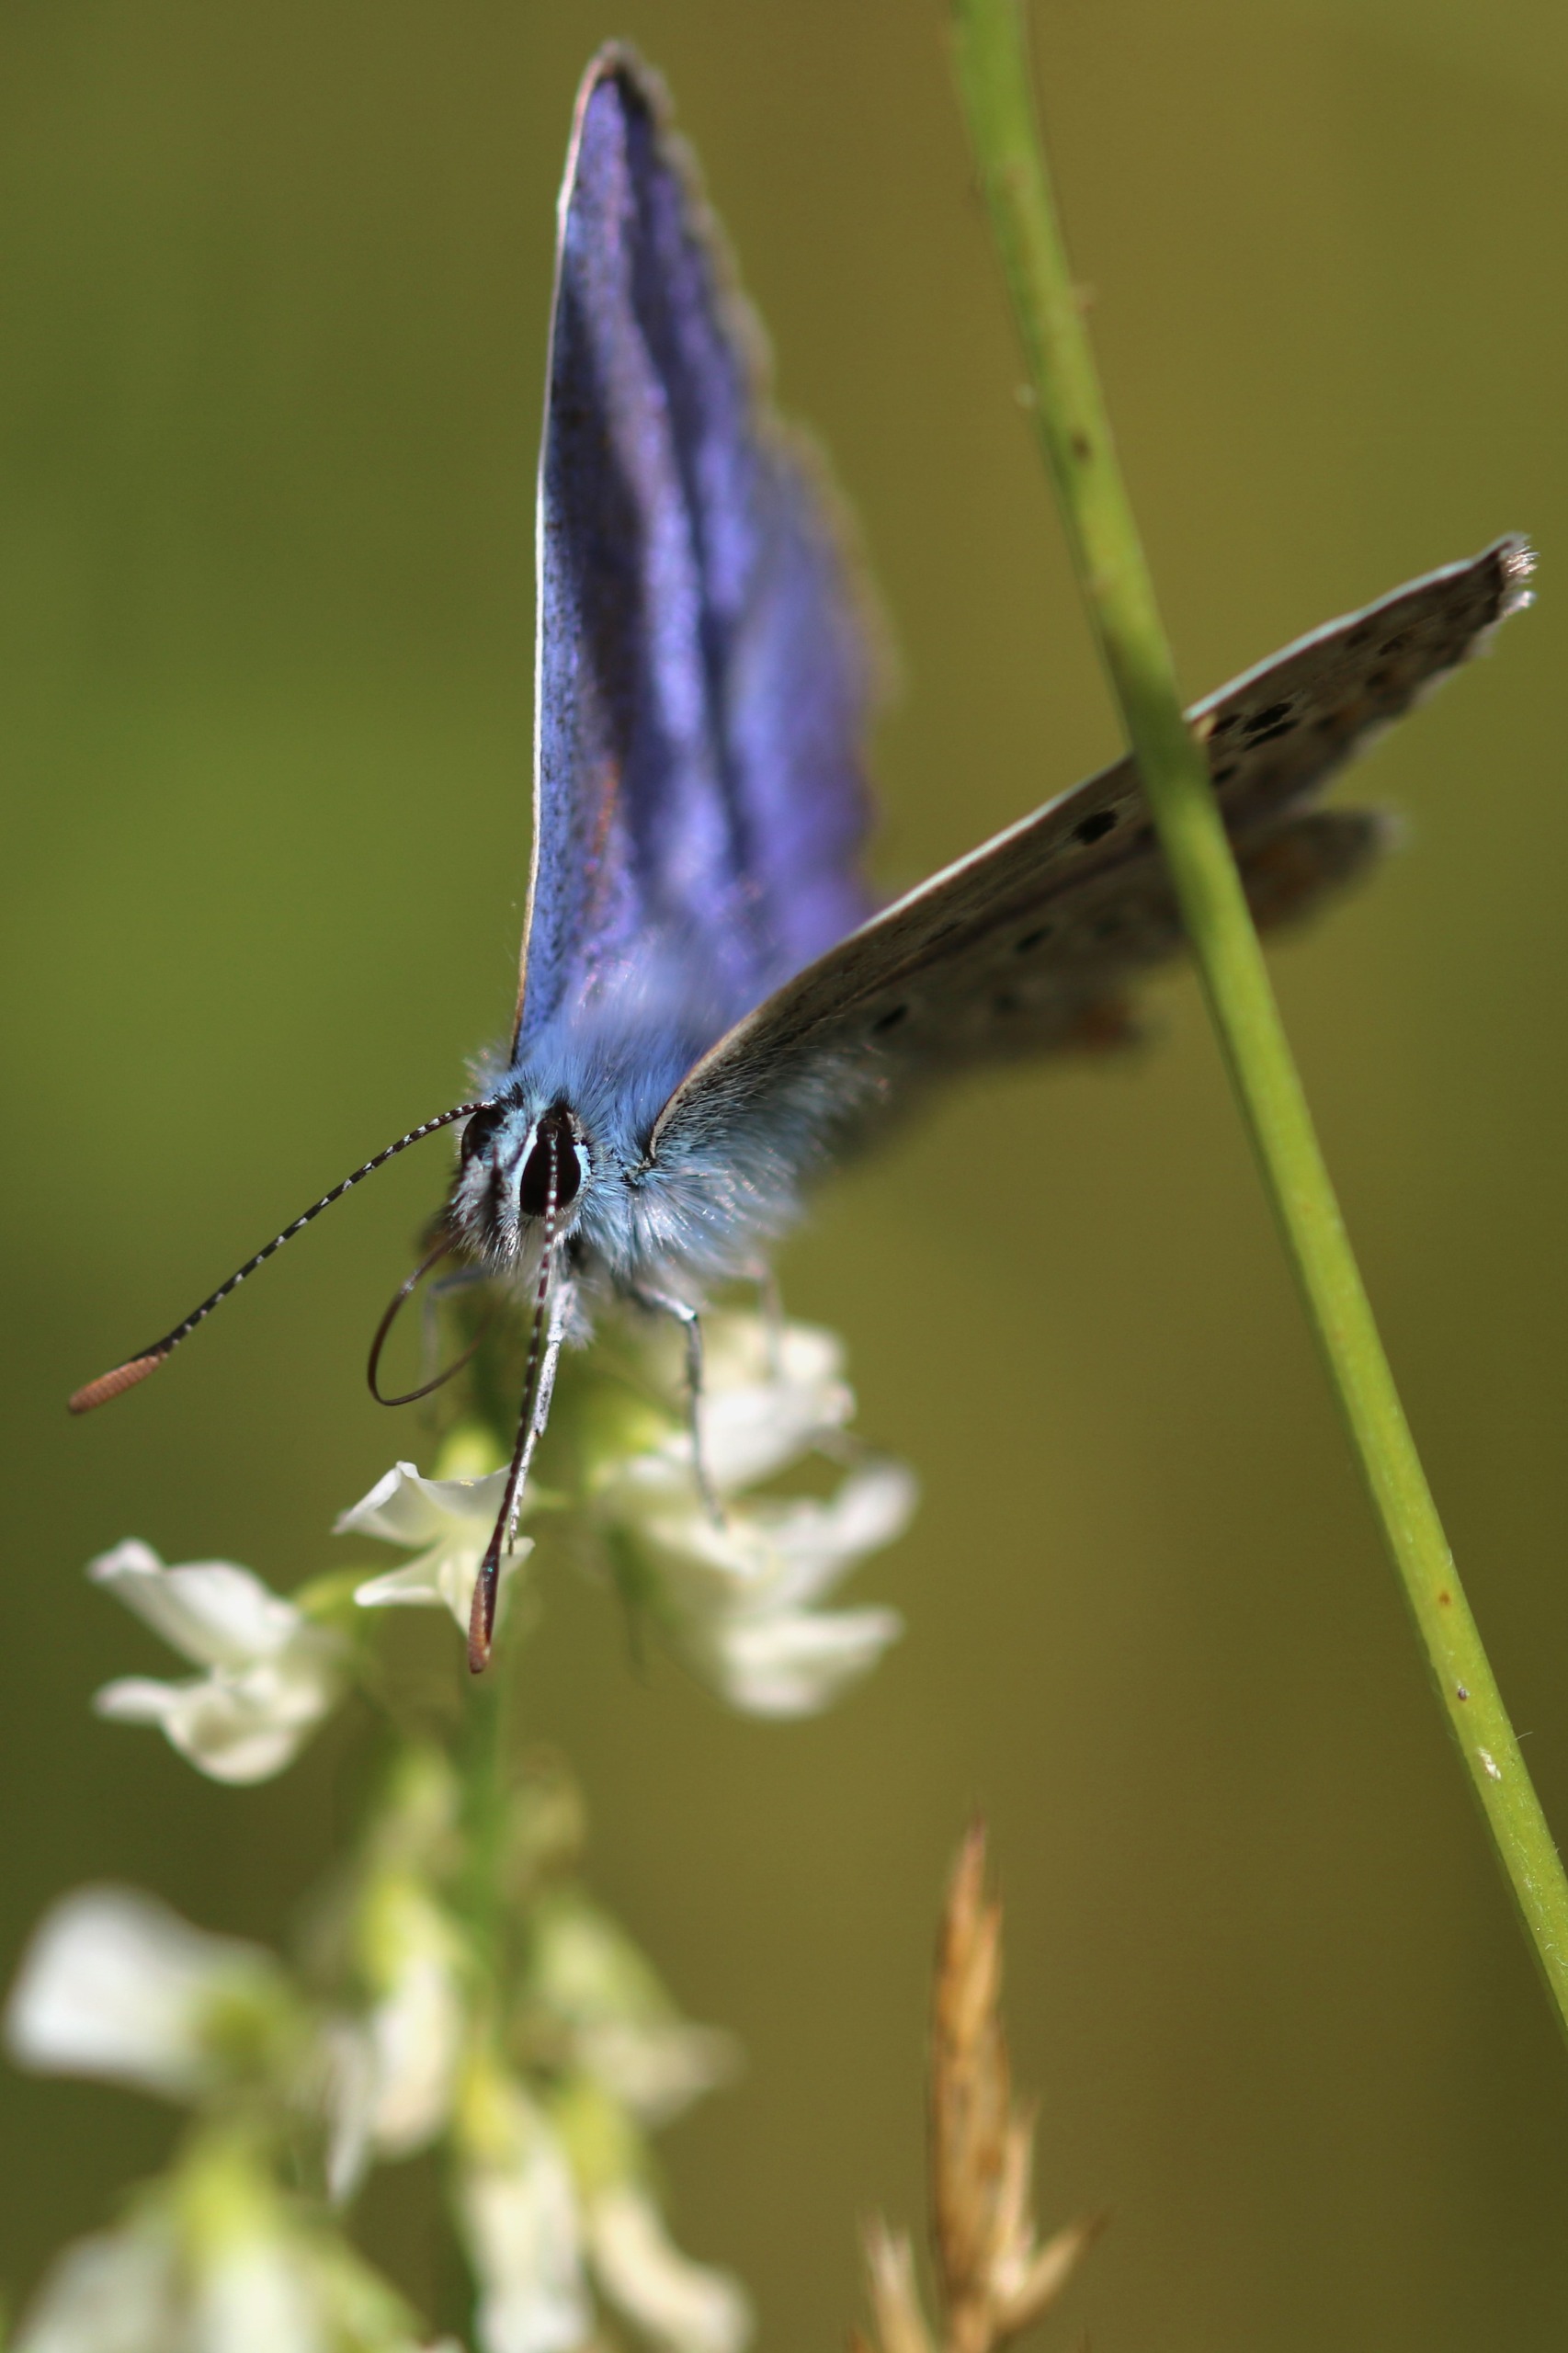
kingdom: Animalia
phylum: Arthropoda
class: Insecta
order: Lepidoptera
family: Lycaenidae
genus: Polyommatus
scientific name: Polyommatus icarus
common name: Almindelig blåfugl
